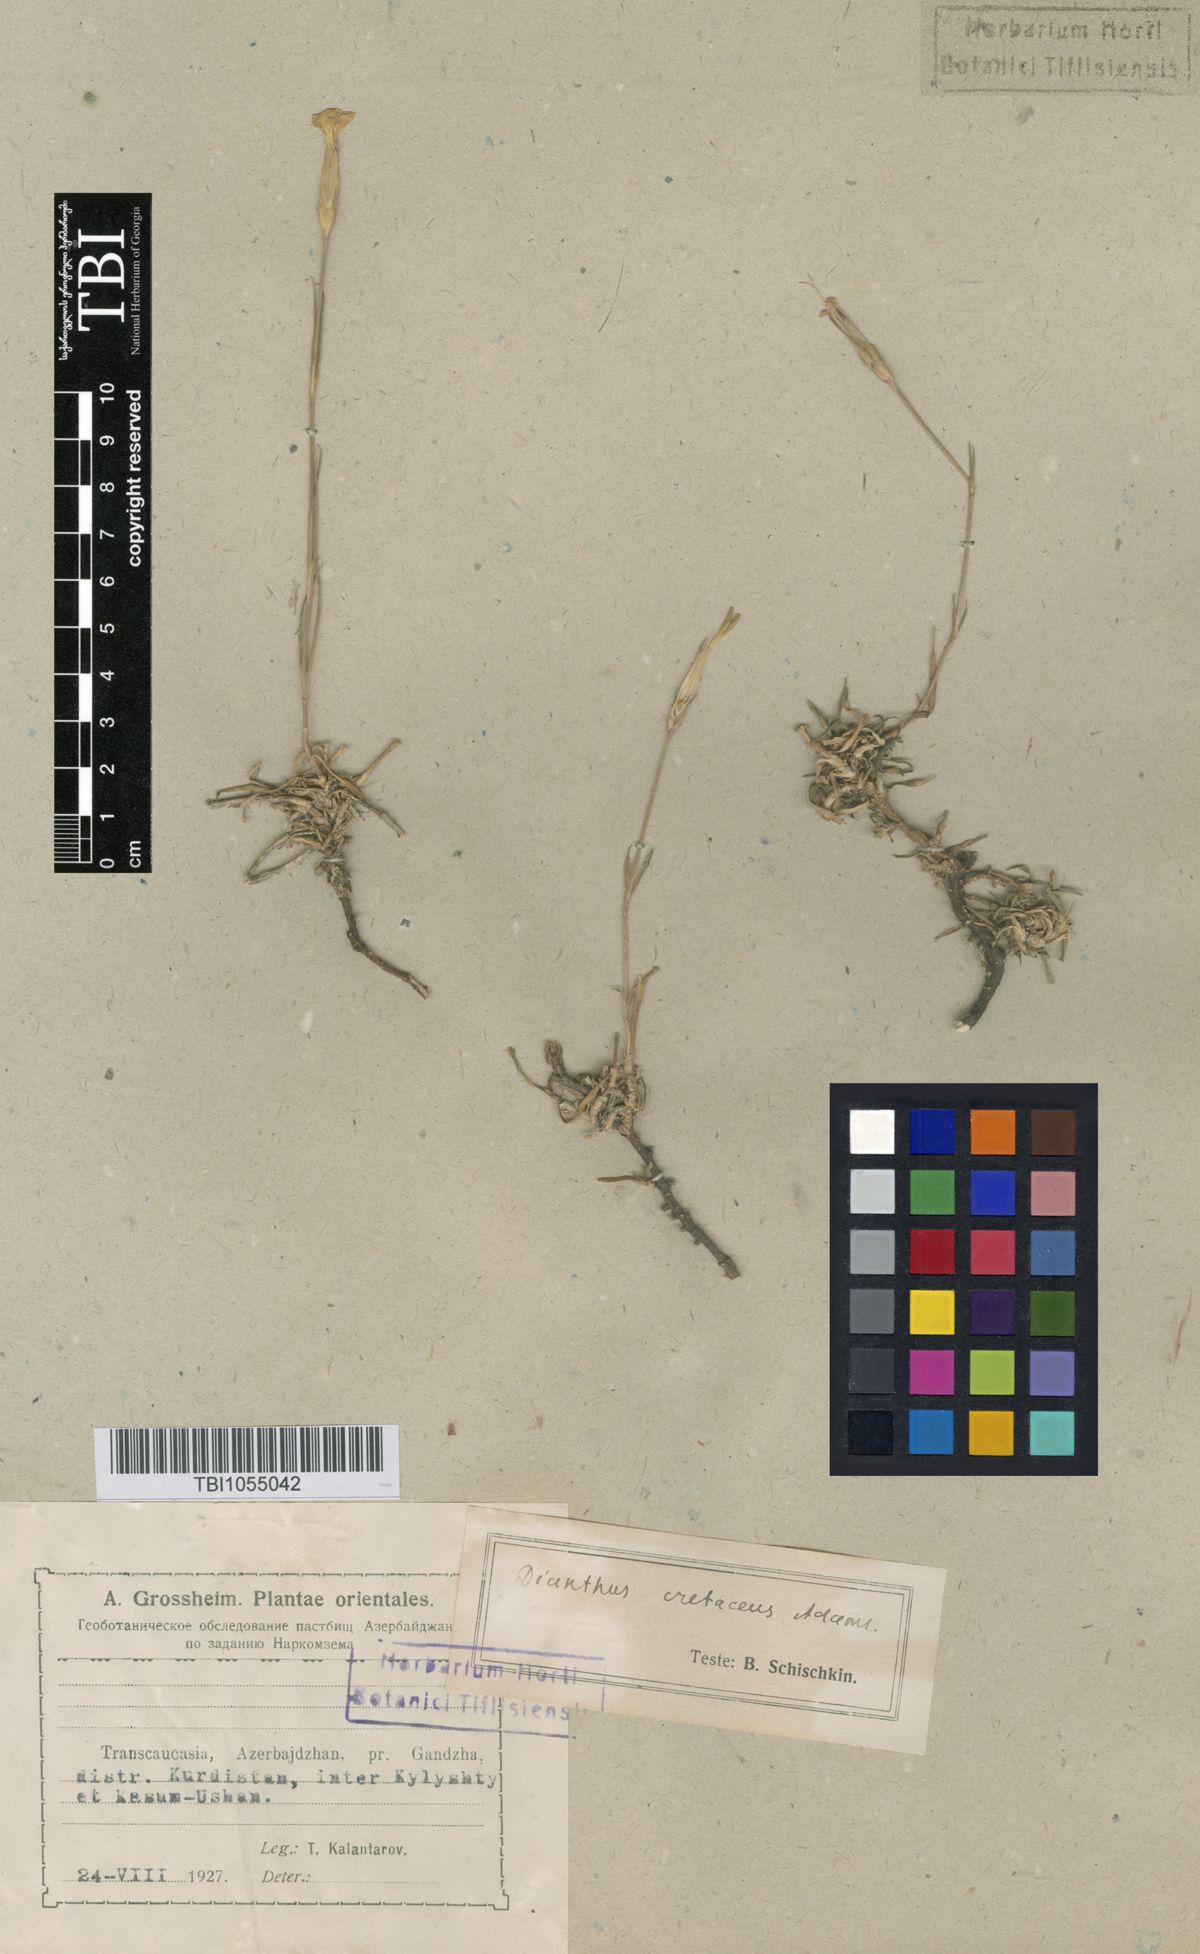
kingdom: Plantae
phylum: Tracheophyta
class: Magnoliopsida
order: Caryophyllales
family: Caryophyllaceae
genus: Dianthus
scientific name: Dianthus cretaceus
